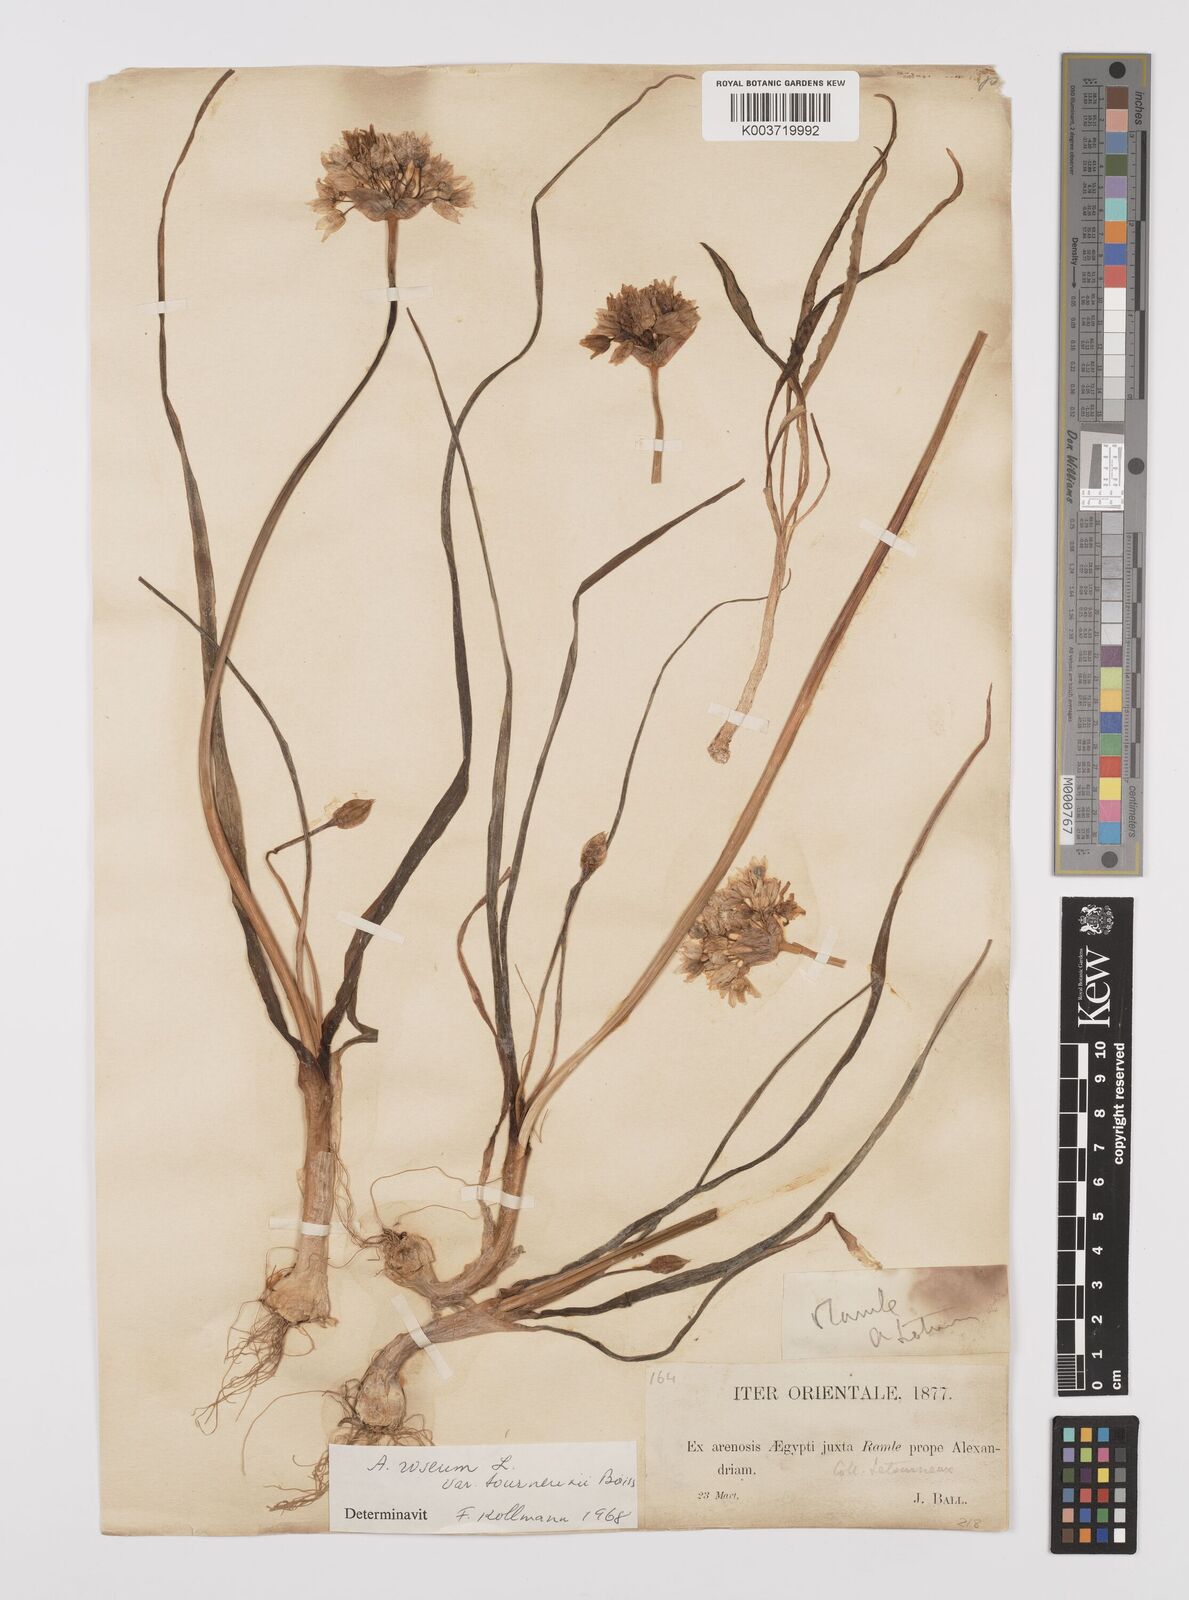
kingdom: Plantae
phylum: Tracheophyta
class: Liliopsida
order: Asparagales
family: Amaryllidaceae
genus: Allium
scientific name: Allium roseum
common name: Rosy garlic
